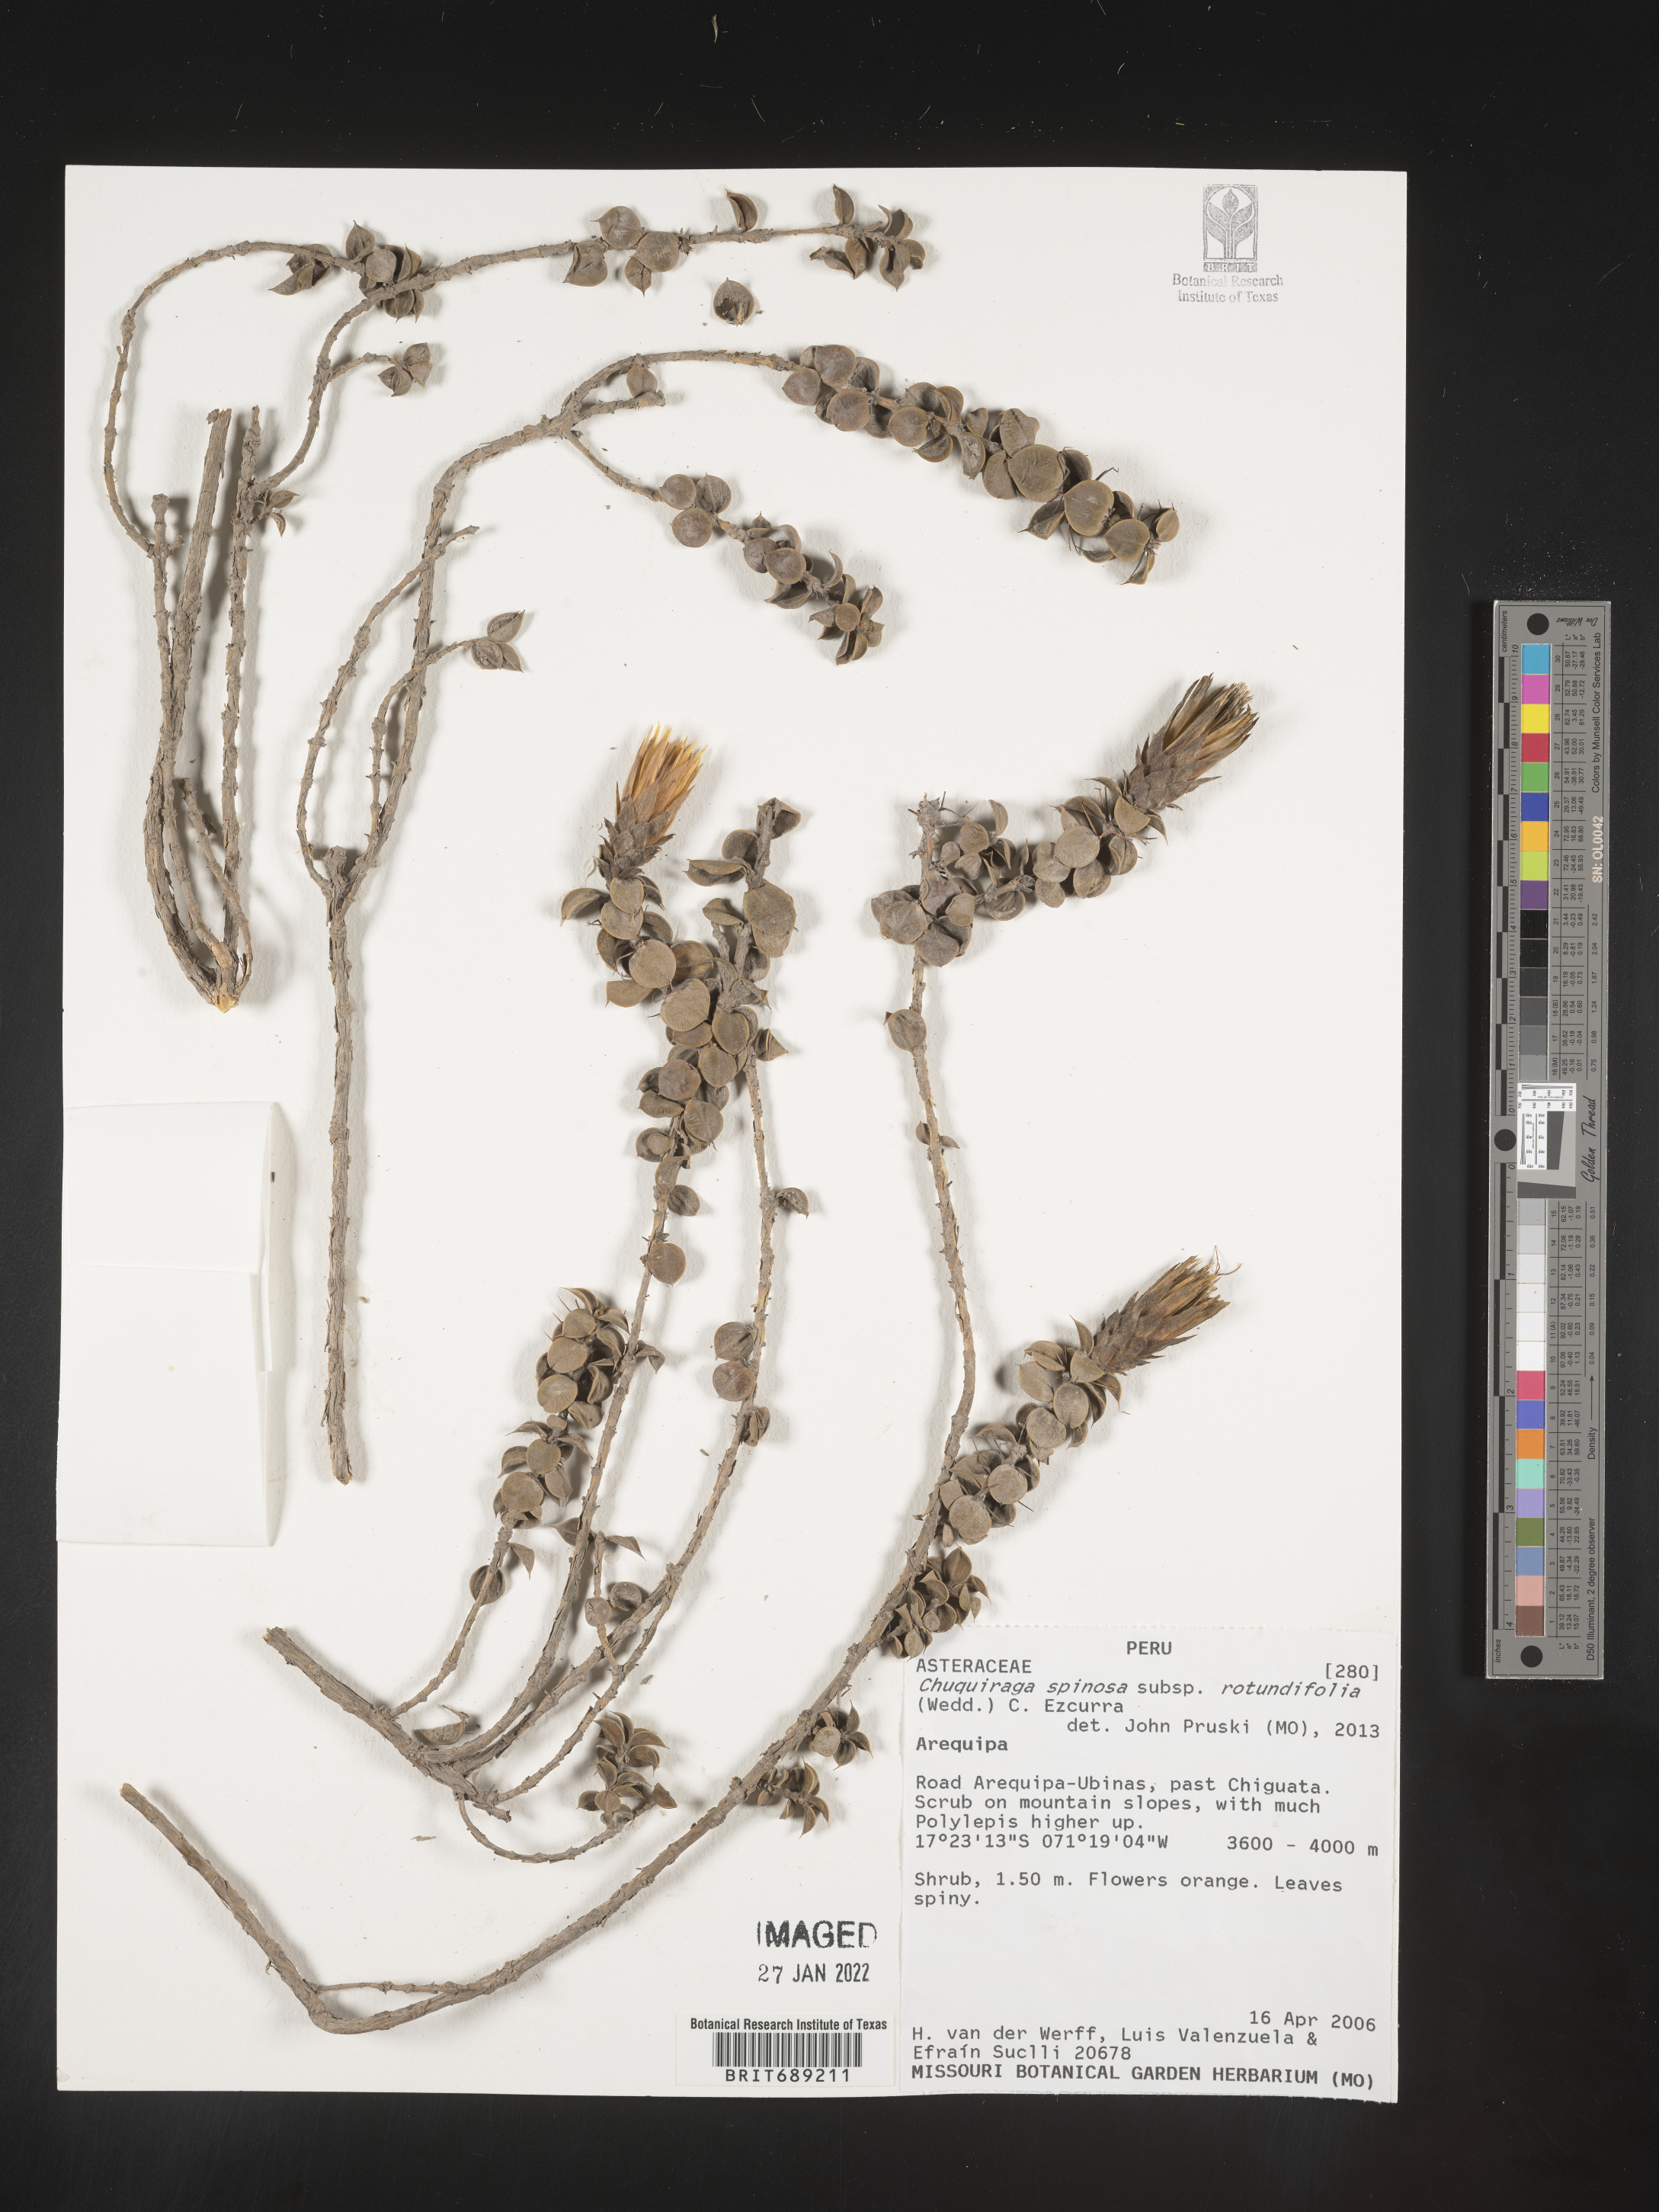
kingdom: Plantae
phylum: Tracheophyta
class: Magnoliopsida
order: Asterales
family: Asteraceae
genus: Chuquiraga
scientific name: Chuquiraga
